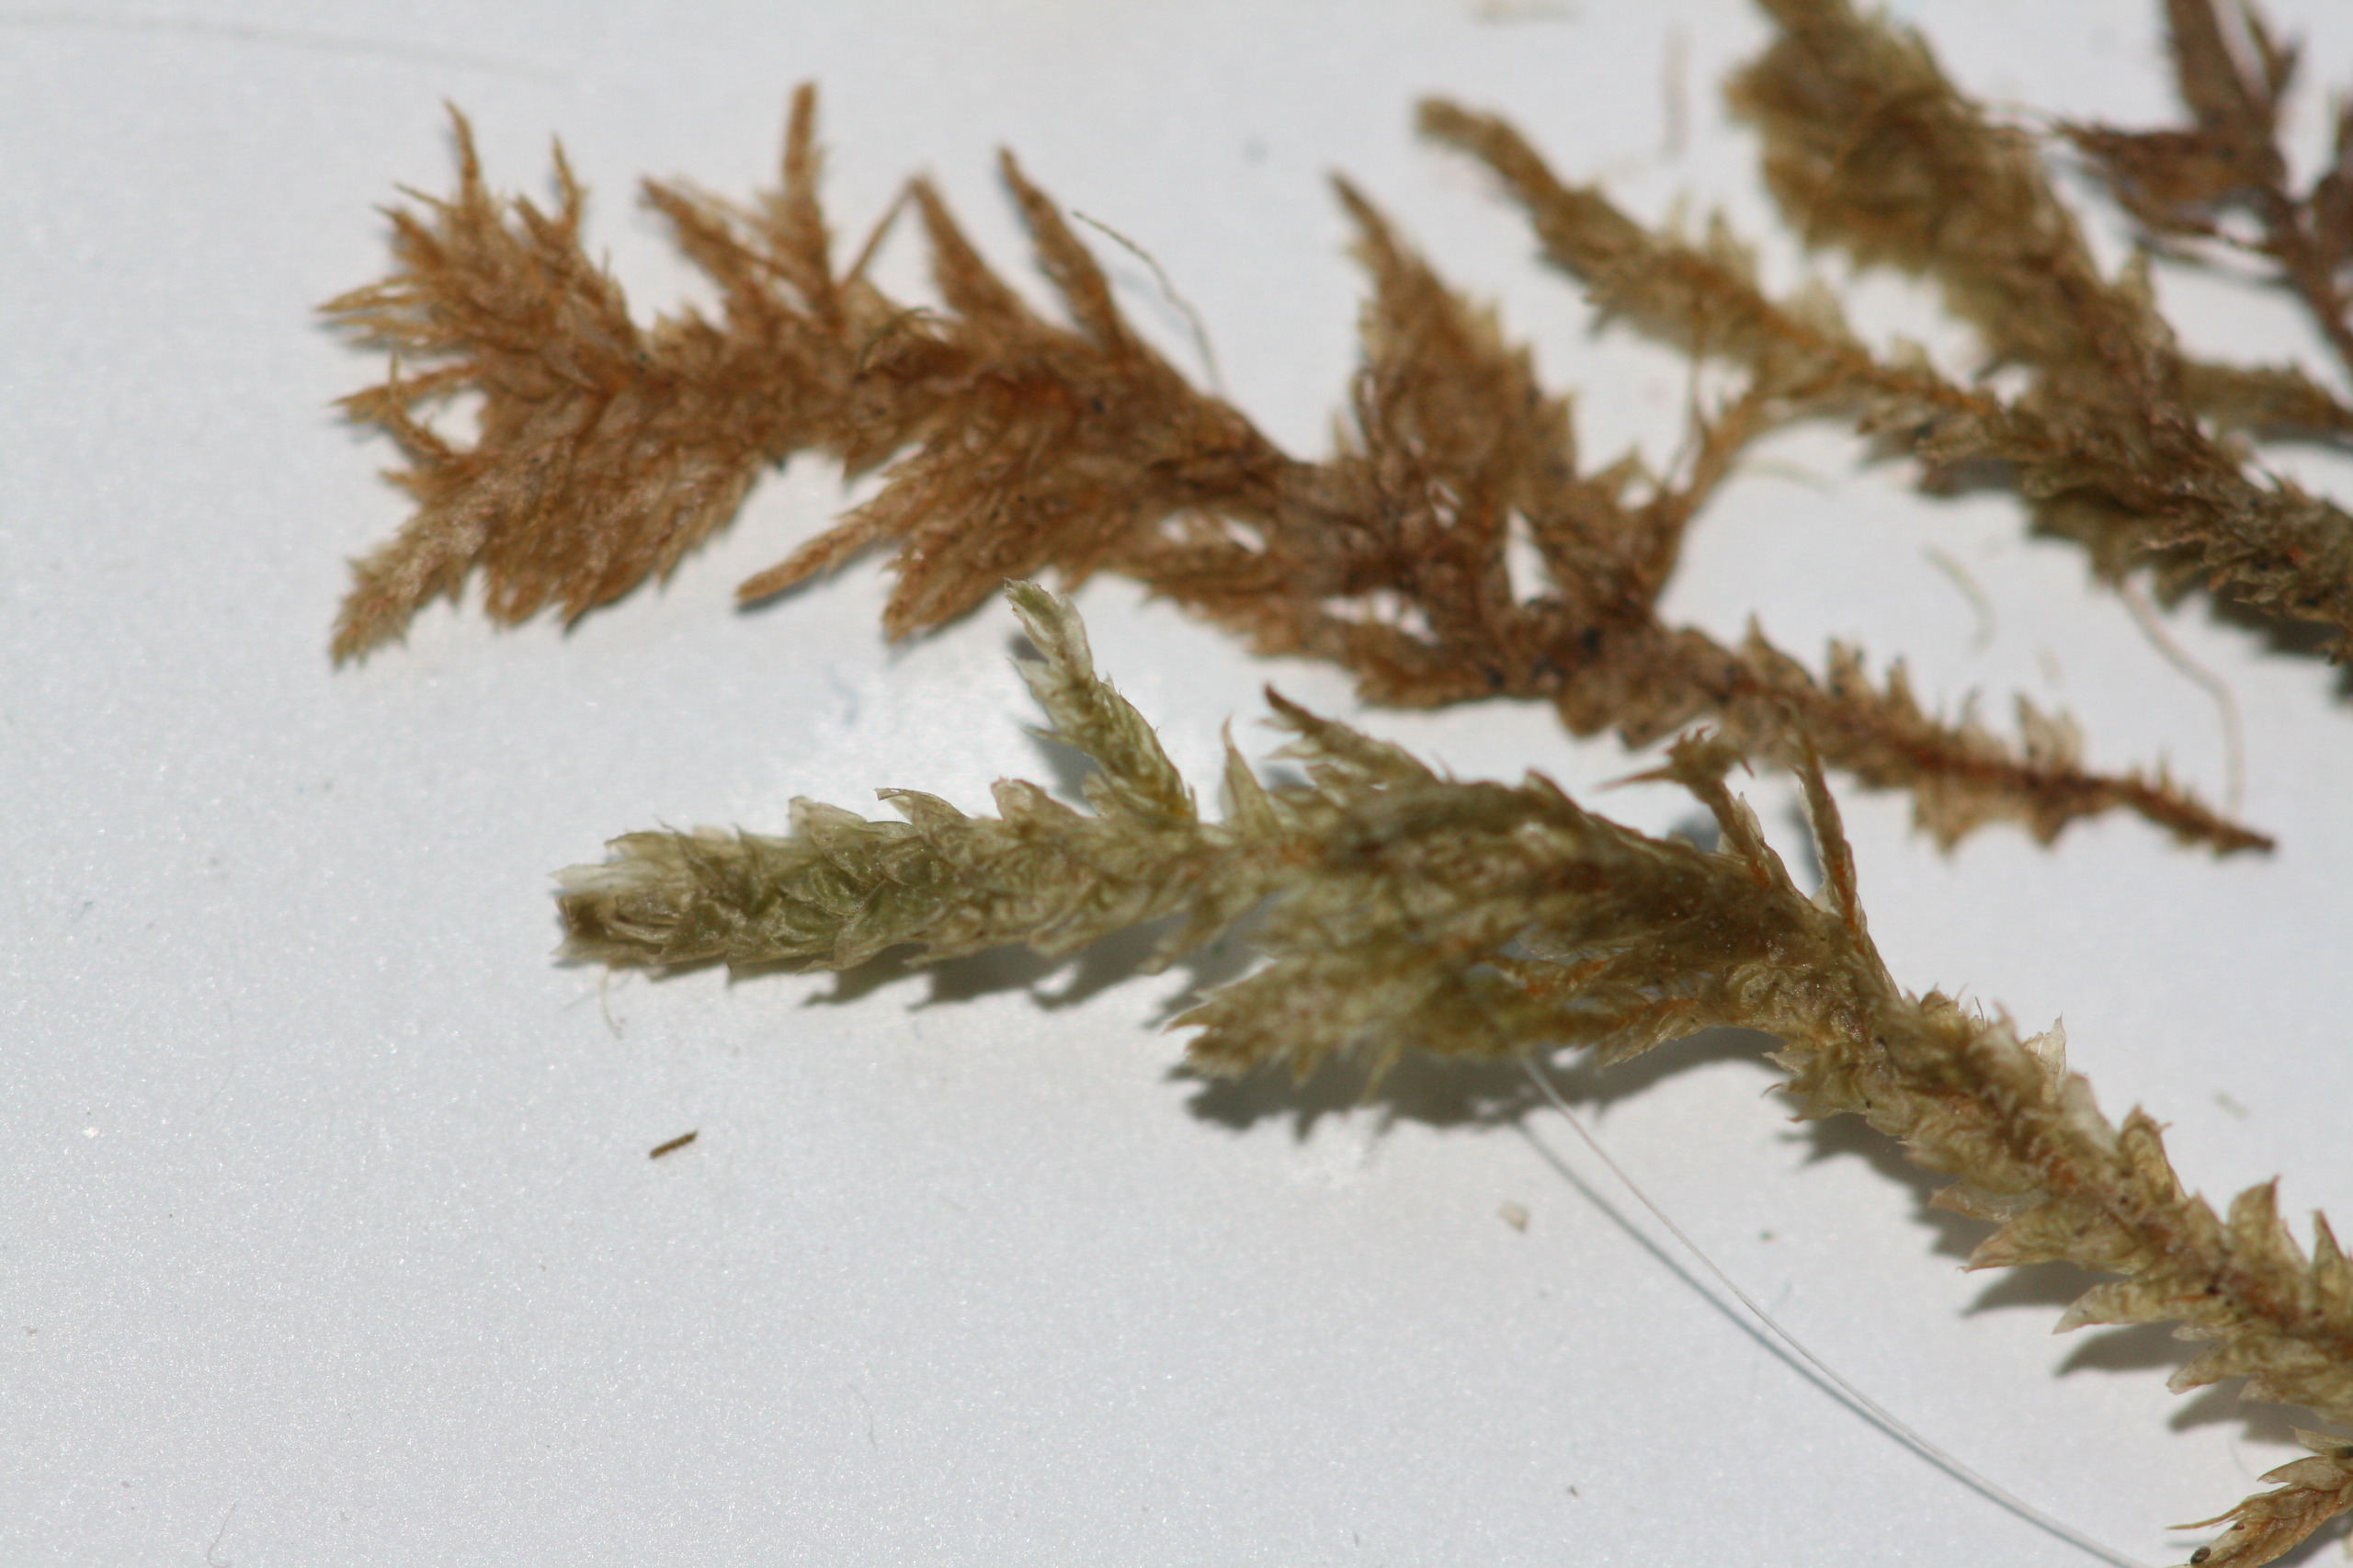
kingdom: Plantae
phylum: Bryophyta
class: Bryopsida
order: Hypnales
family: Neckeraceae
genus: Neckera
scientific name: Neckera pumila
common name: Lav fladmos
